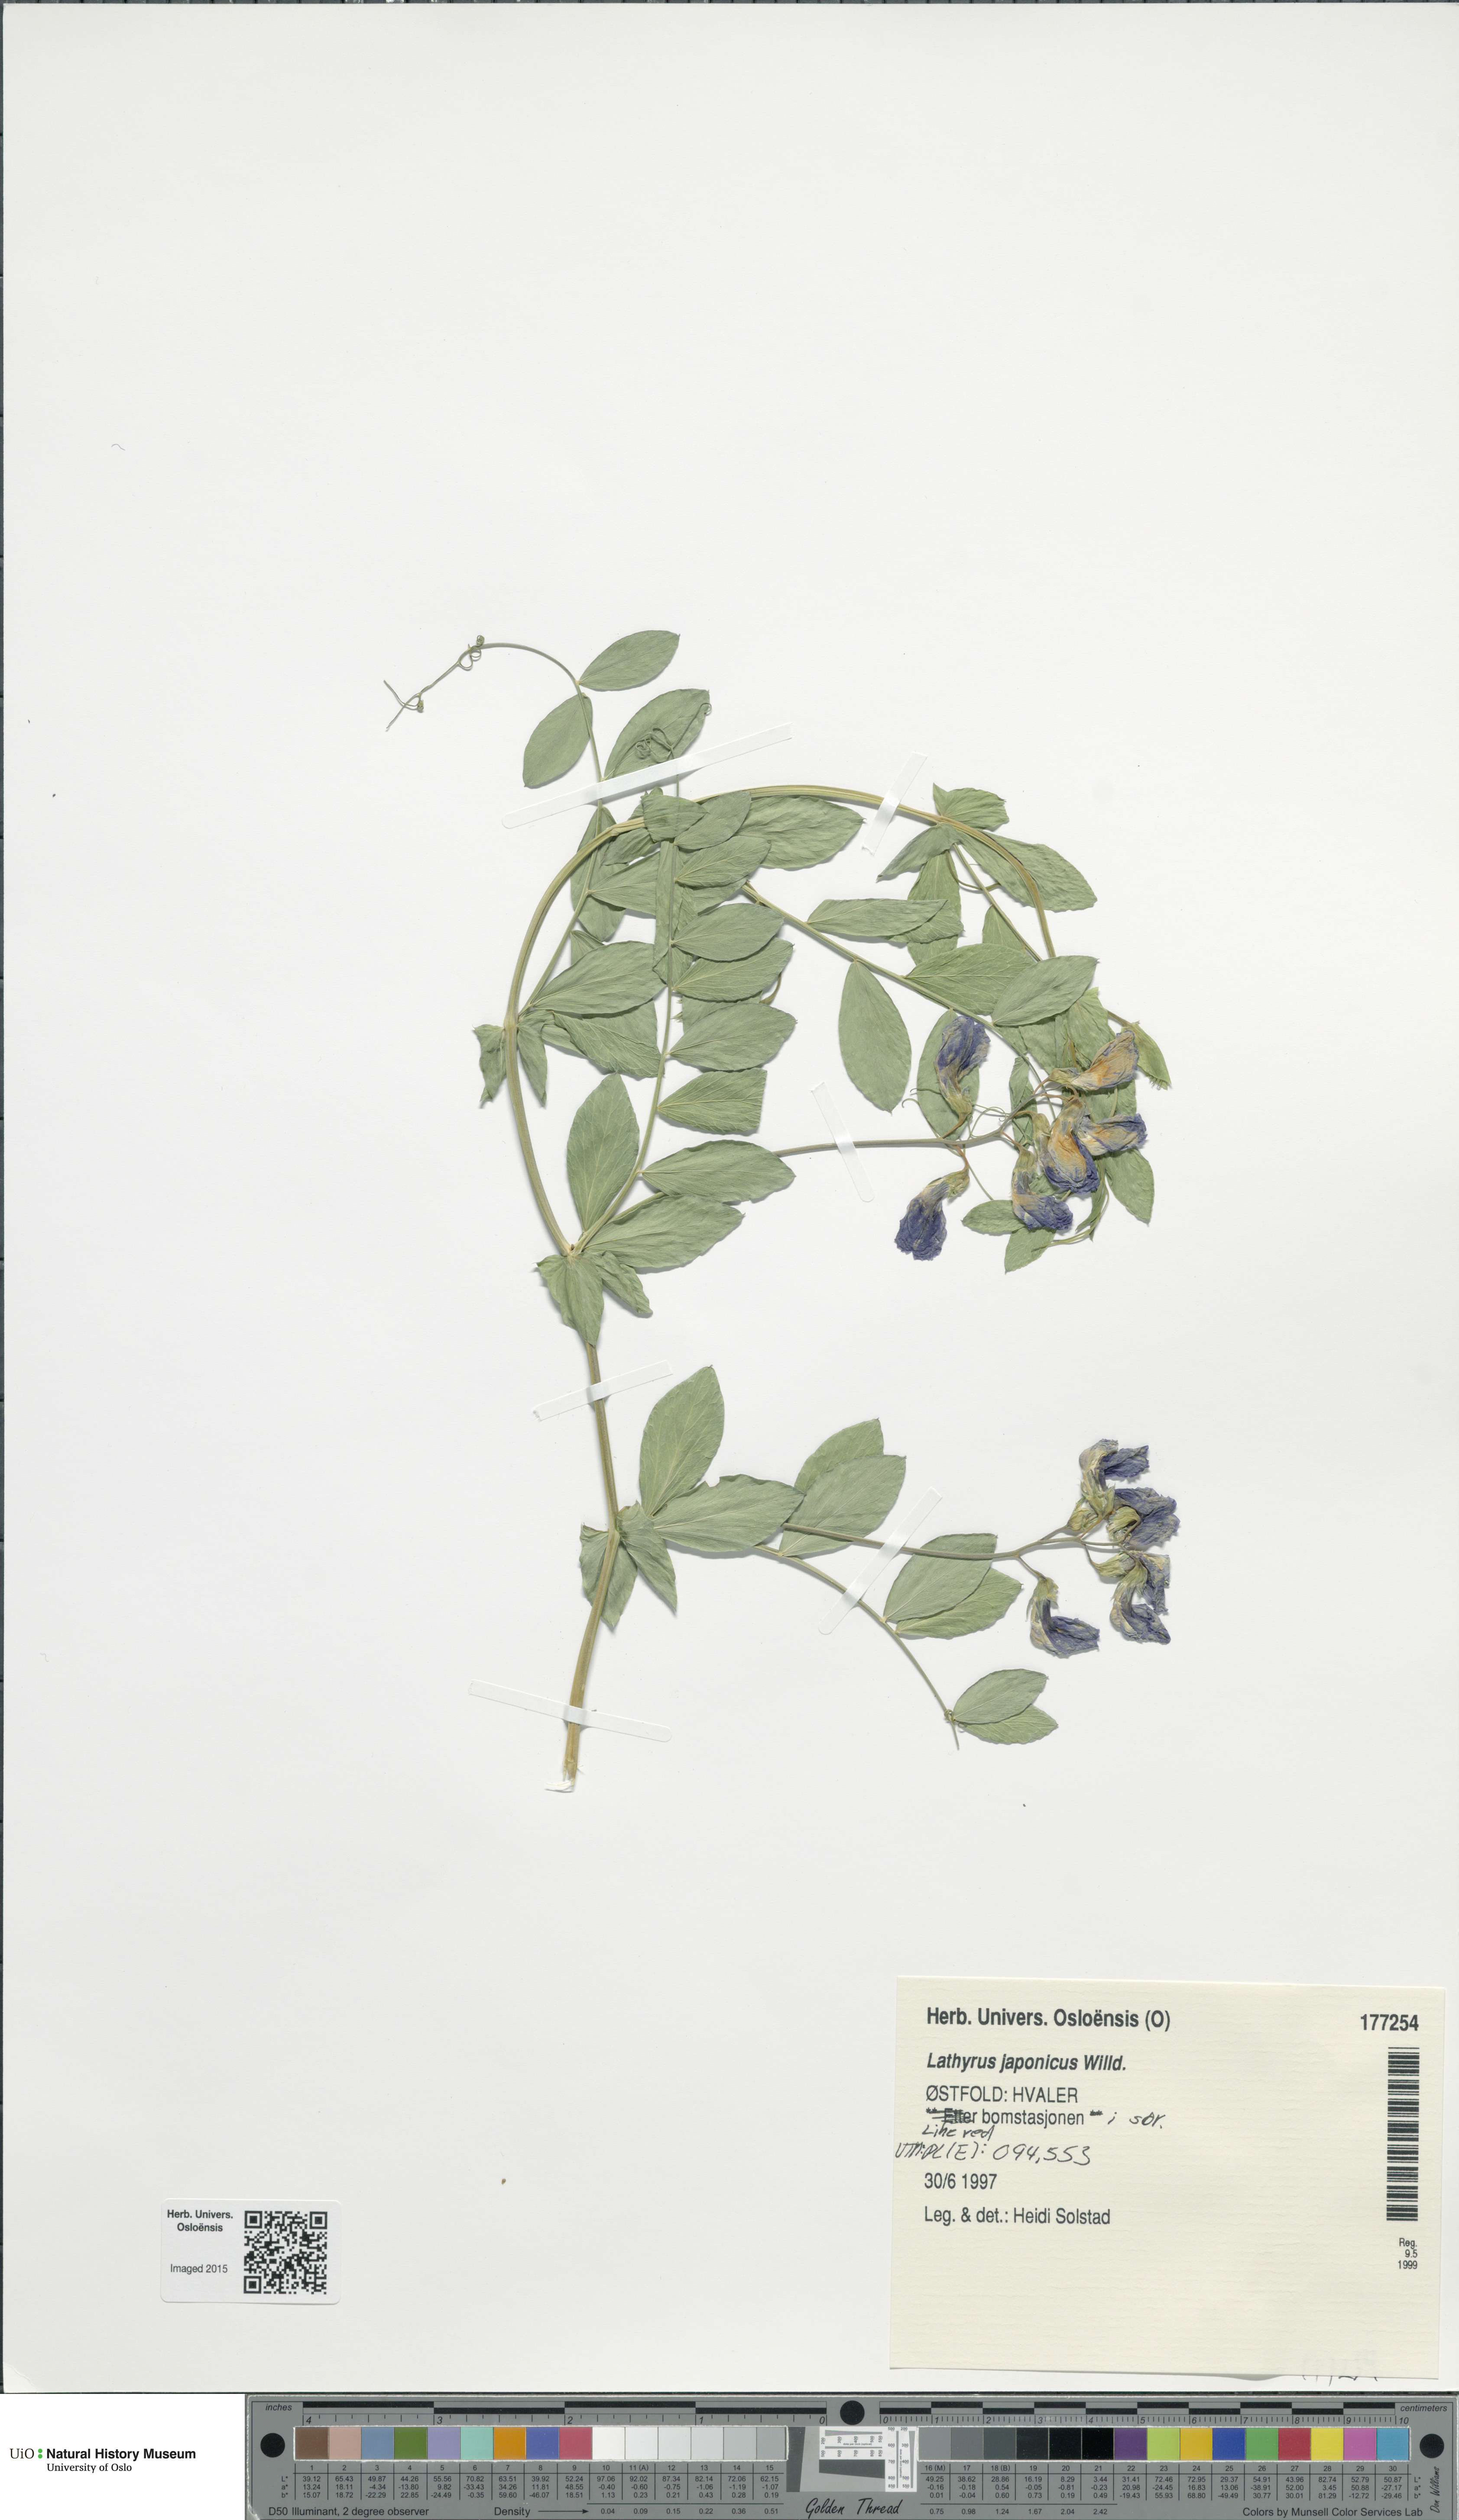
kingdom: Plantae
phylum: Tracheophyta
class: Magnoliopsida
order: Fabales
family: Fabaceae
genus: Lathyrus
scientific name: Lathyrus japonicus
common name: Sea pea
